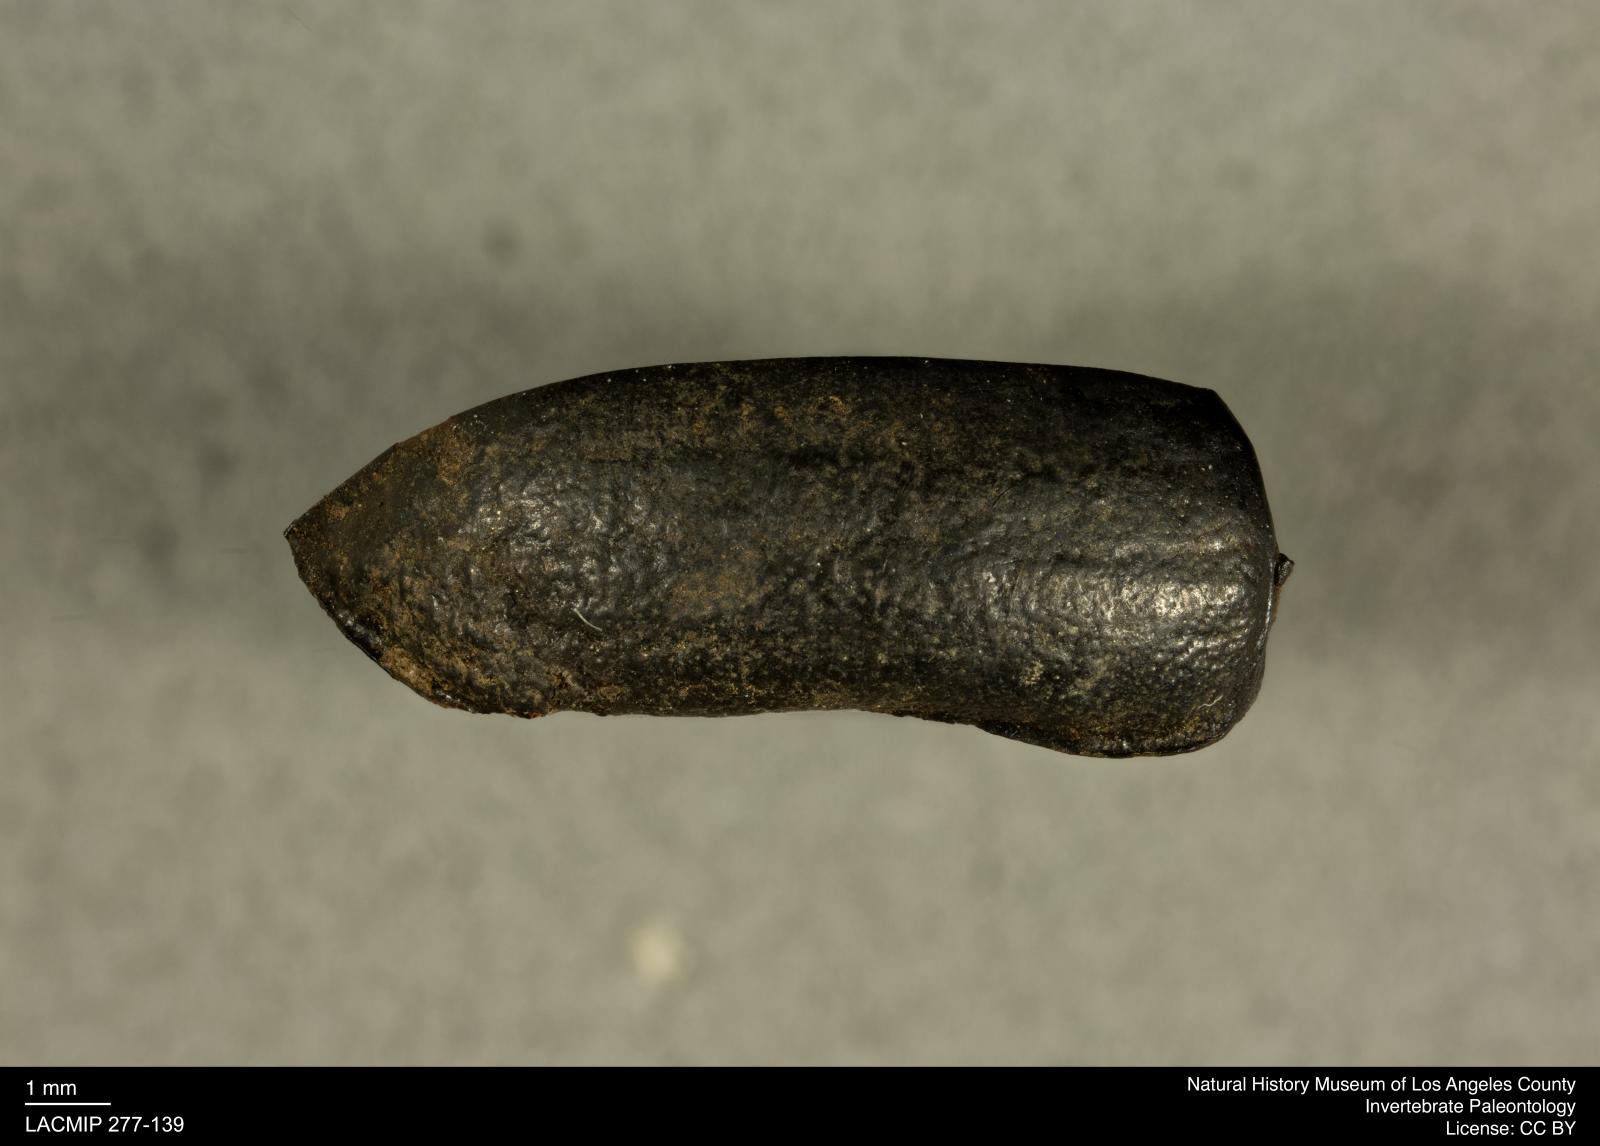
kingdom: Animalia
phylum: Arthropoda
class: Insecta
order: Coleoptera
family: Tenebrionidae
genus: Coniontis
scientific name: Coniontis abdominalis
